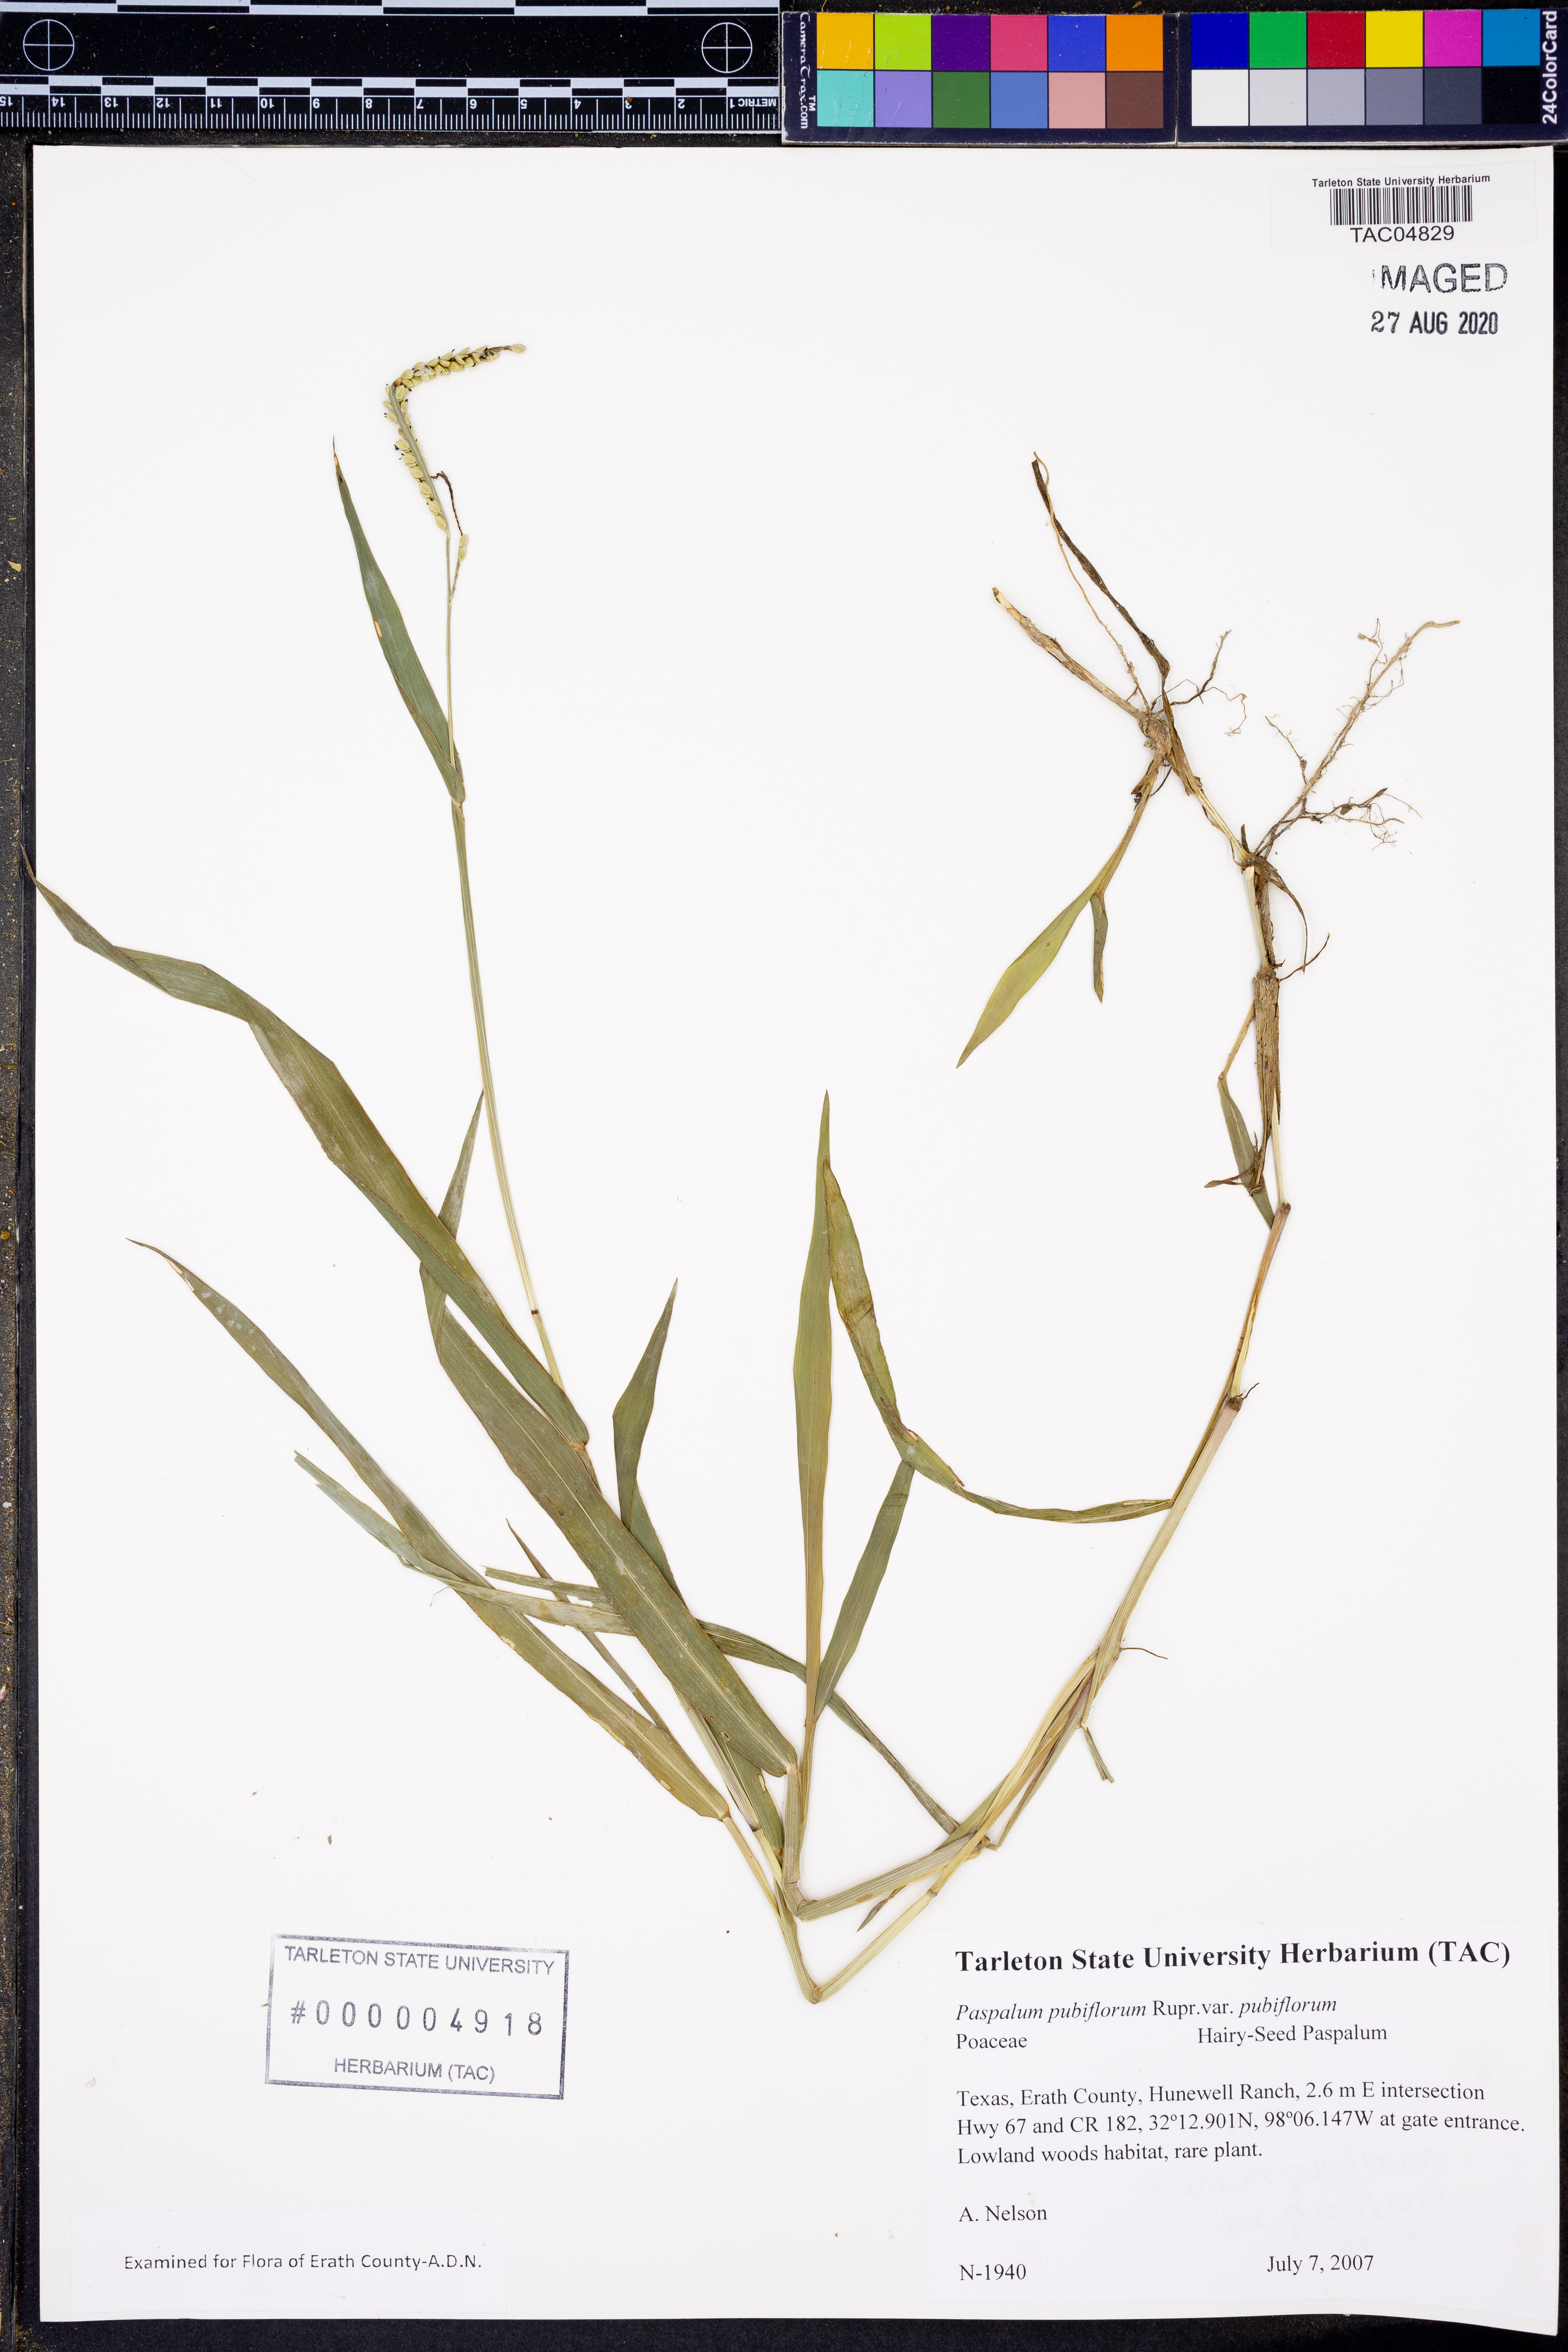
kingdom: Plantae
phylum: Tracheophyta
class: Liliopsida
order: Poales
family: Poaceae
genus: Paspalum
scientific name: Paspalum pubiflorum
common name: Hairy-seed paspalum
